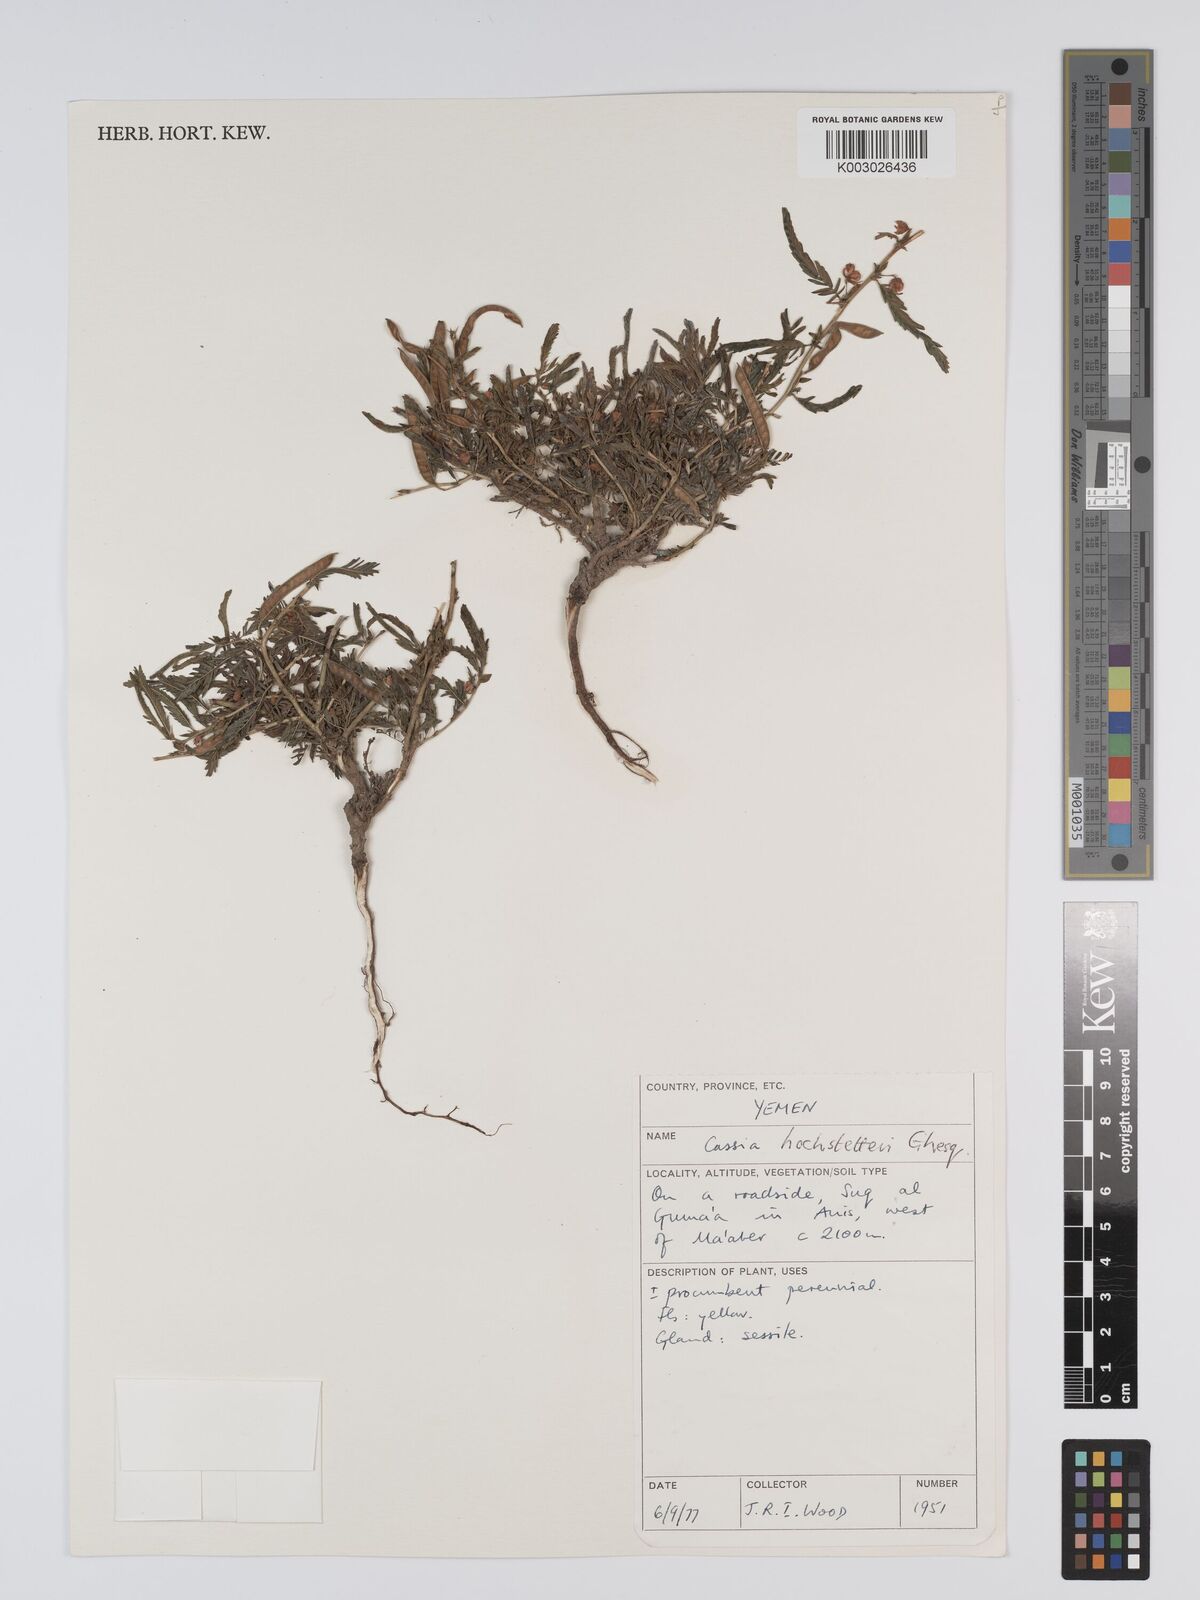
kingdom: Plantae
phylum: Tracheophyta
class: Magnoliopsida
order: Fabales
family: Fabaceae
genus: Chamaecrista
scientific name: Chamaecrista nomame
